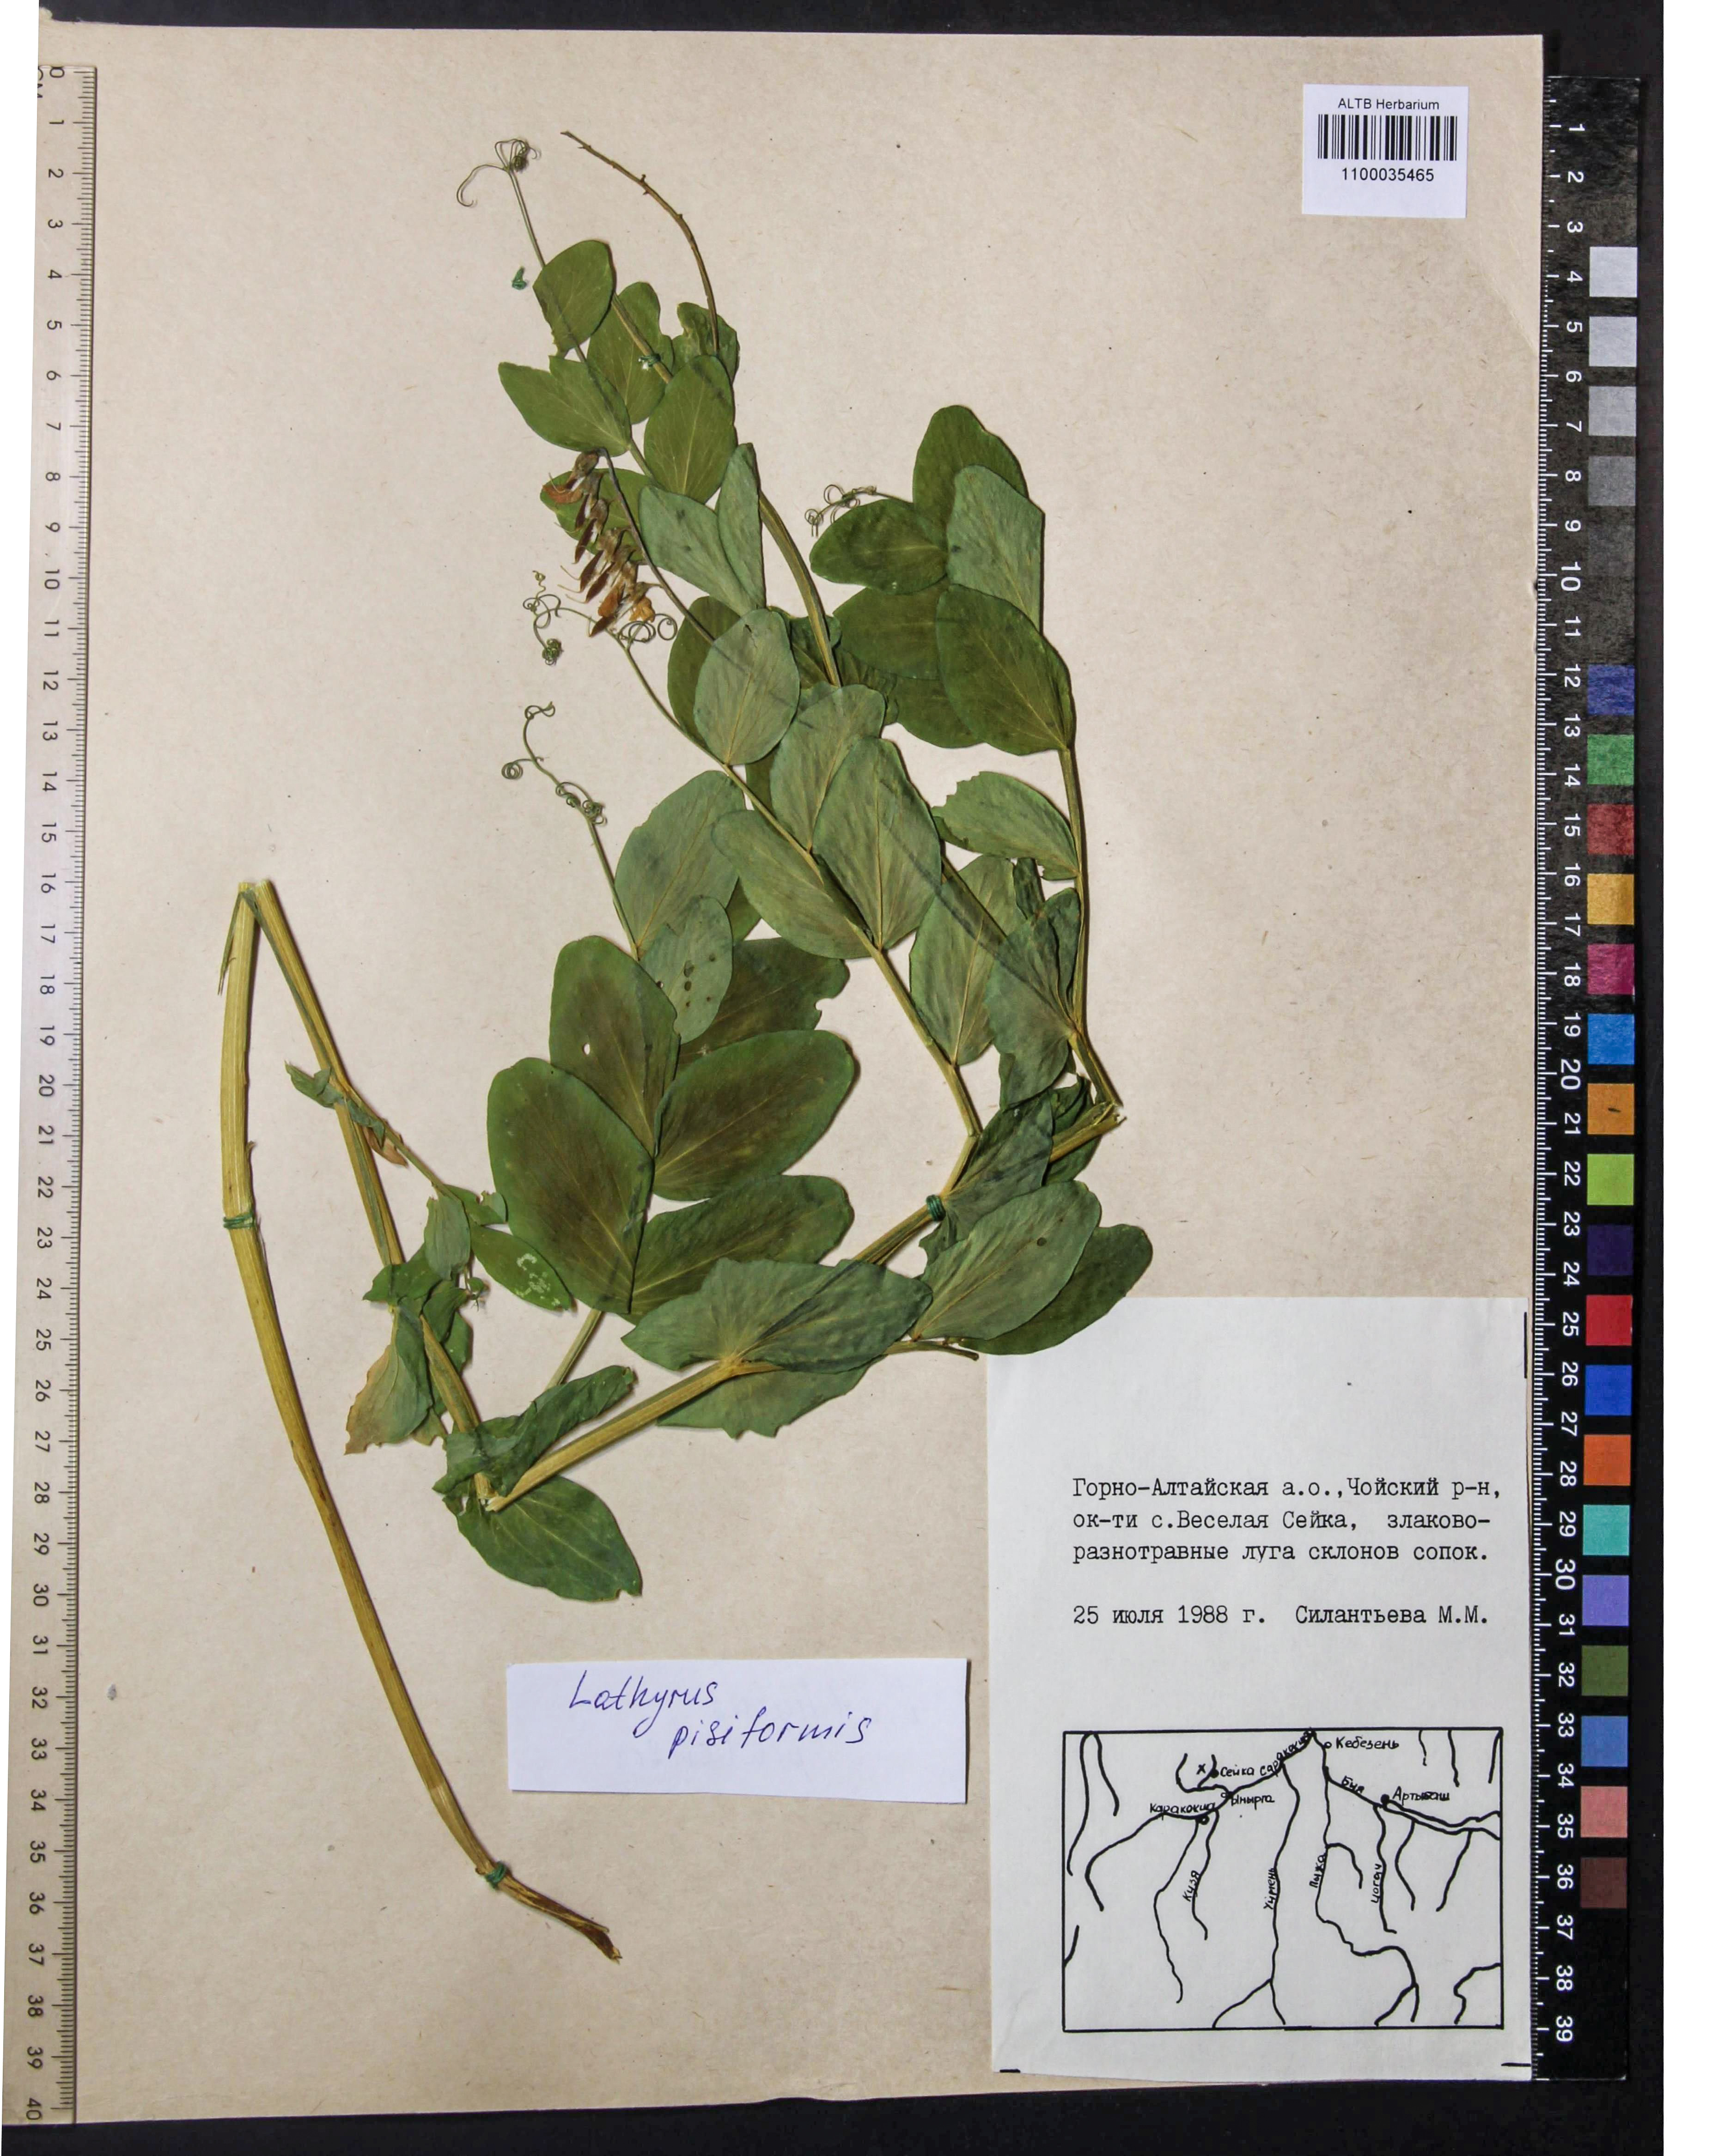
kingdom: Plantae
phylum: Tracheophyta
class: Magnoliopsida
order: Fabales
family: Fabaceae
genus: Lathyrus
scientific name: Lathyrus pisiformis
